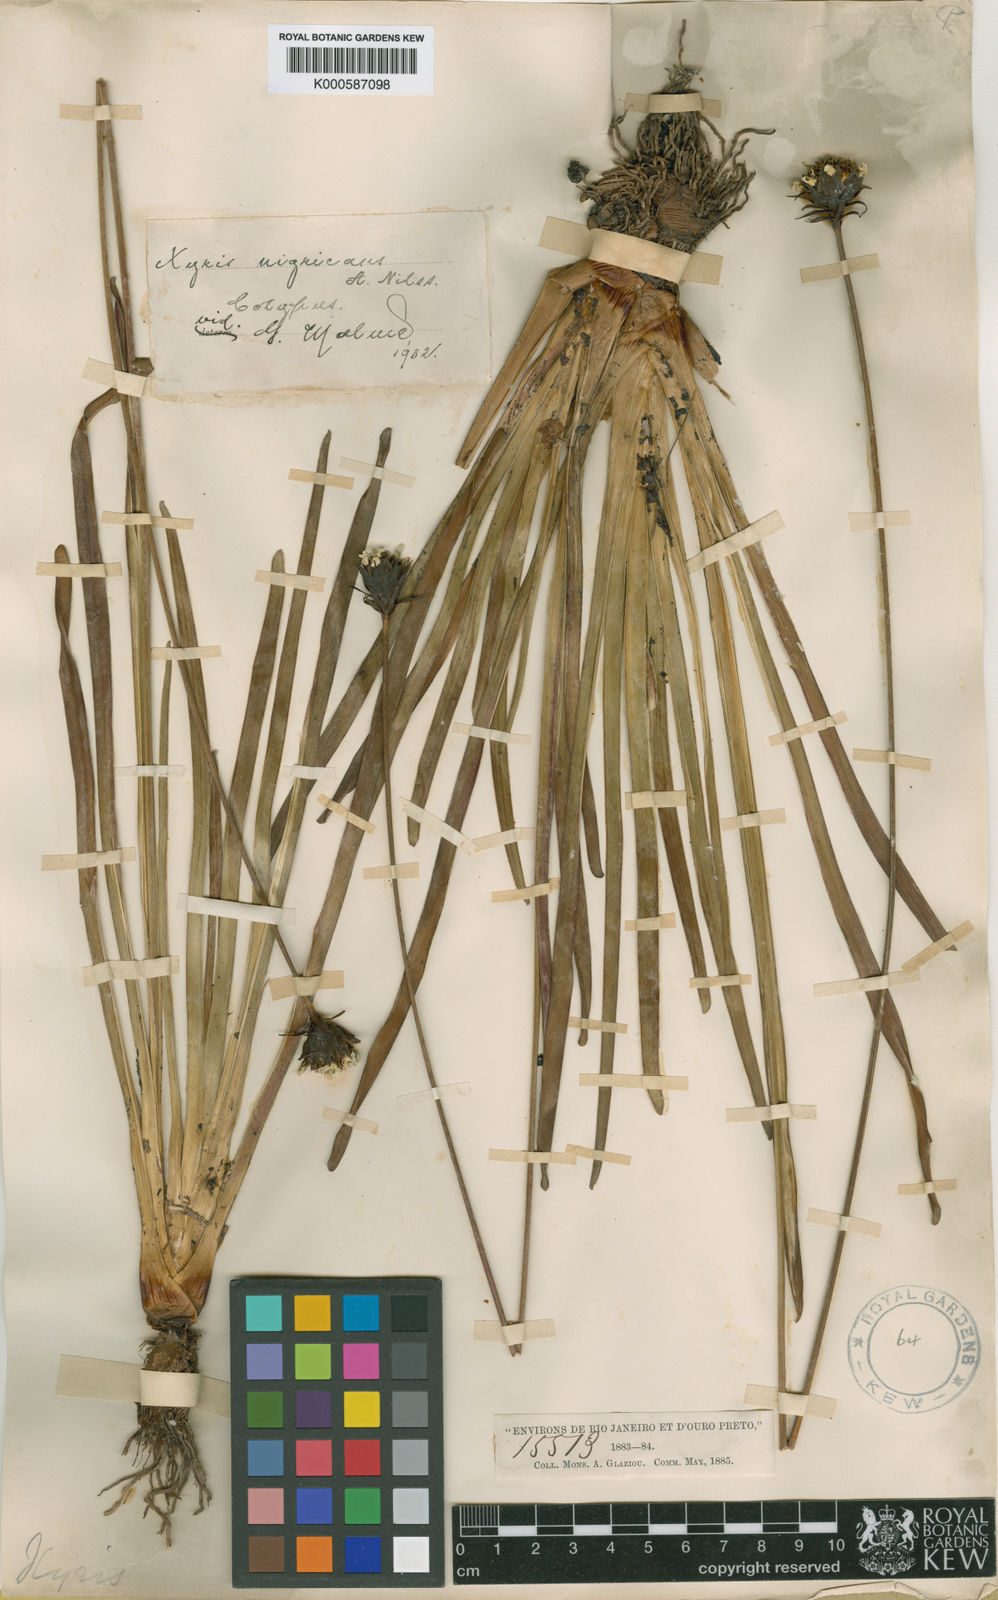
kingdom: Plantae
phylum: Tracheophyta
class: Liliopsida
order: Poales
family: Xyridaceae
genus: Xyris
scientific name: Xyris nigricans
